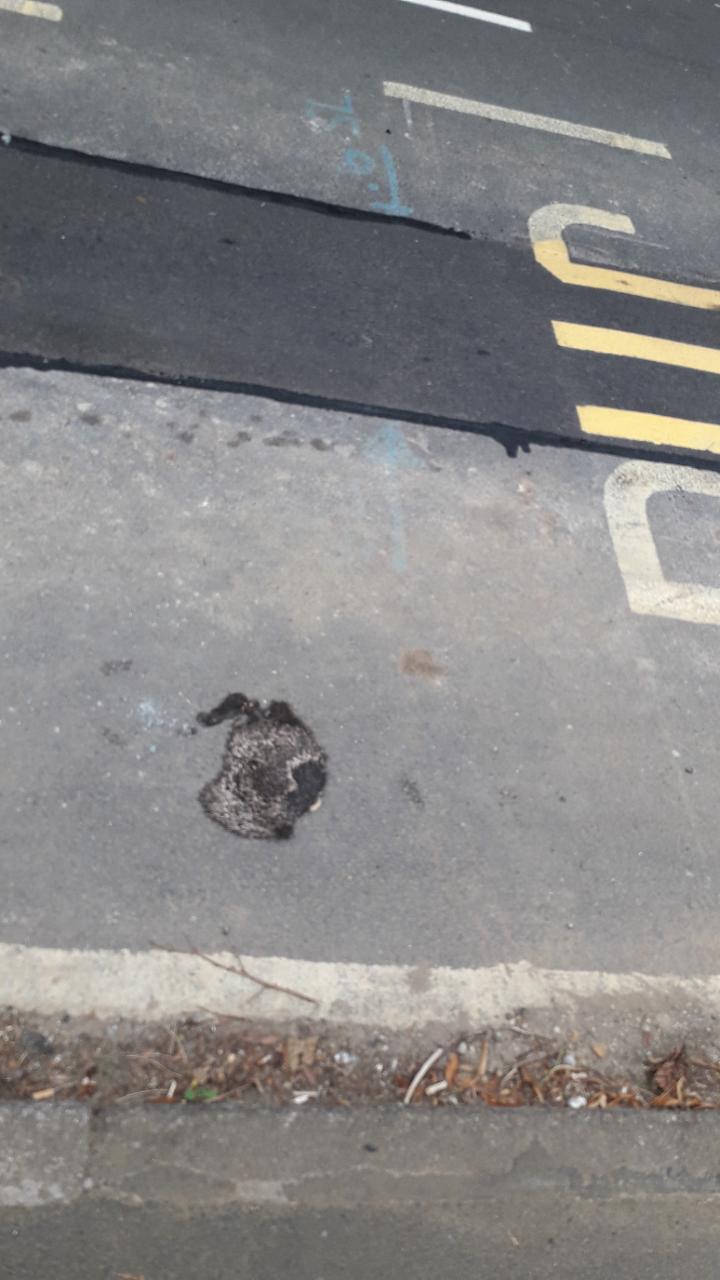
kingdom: Animalia
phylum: Chordata
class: Mammalia
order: Erinaceomorpha
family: Erinaceidae
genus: Erinaceus
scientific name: Erinaceus
